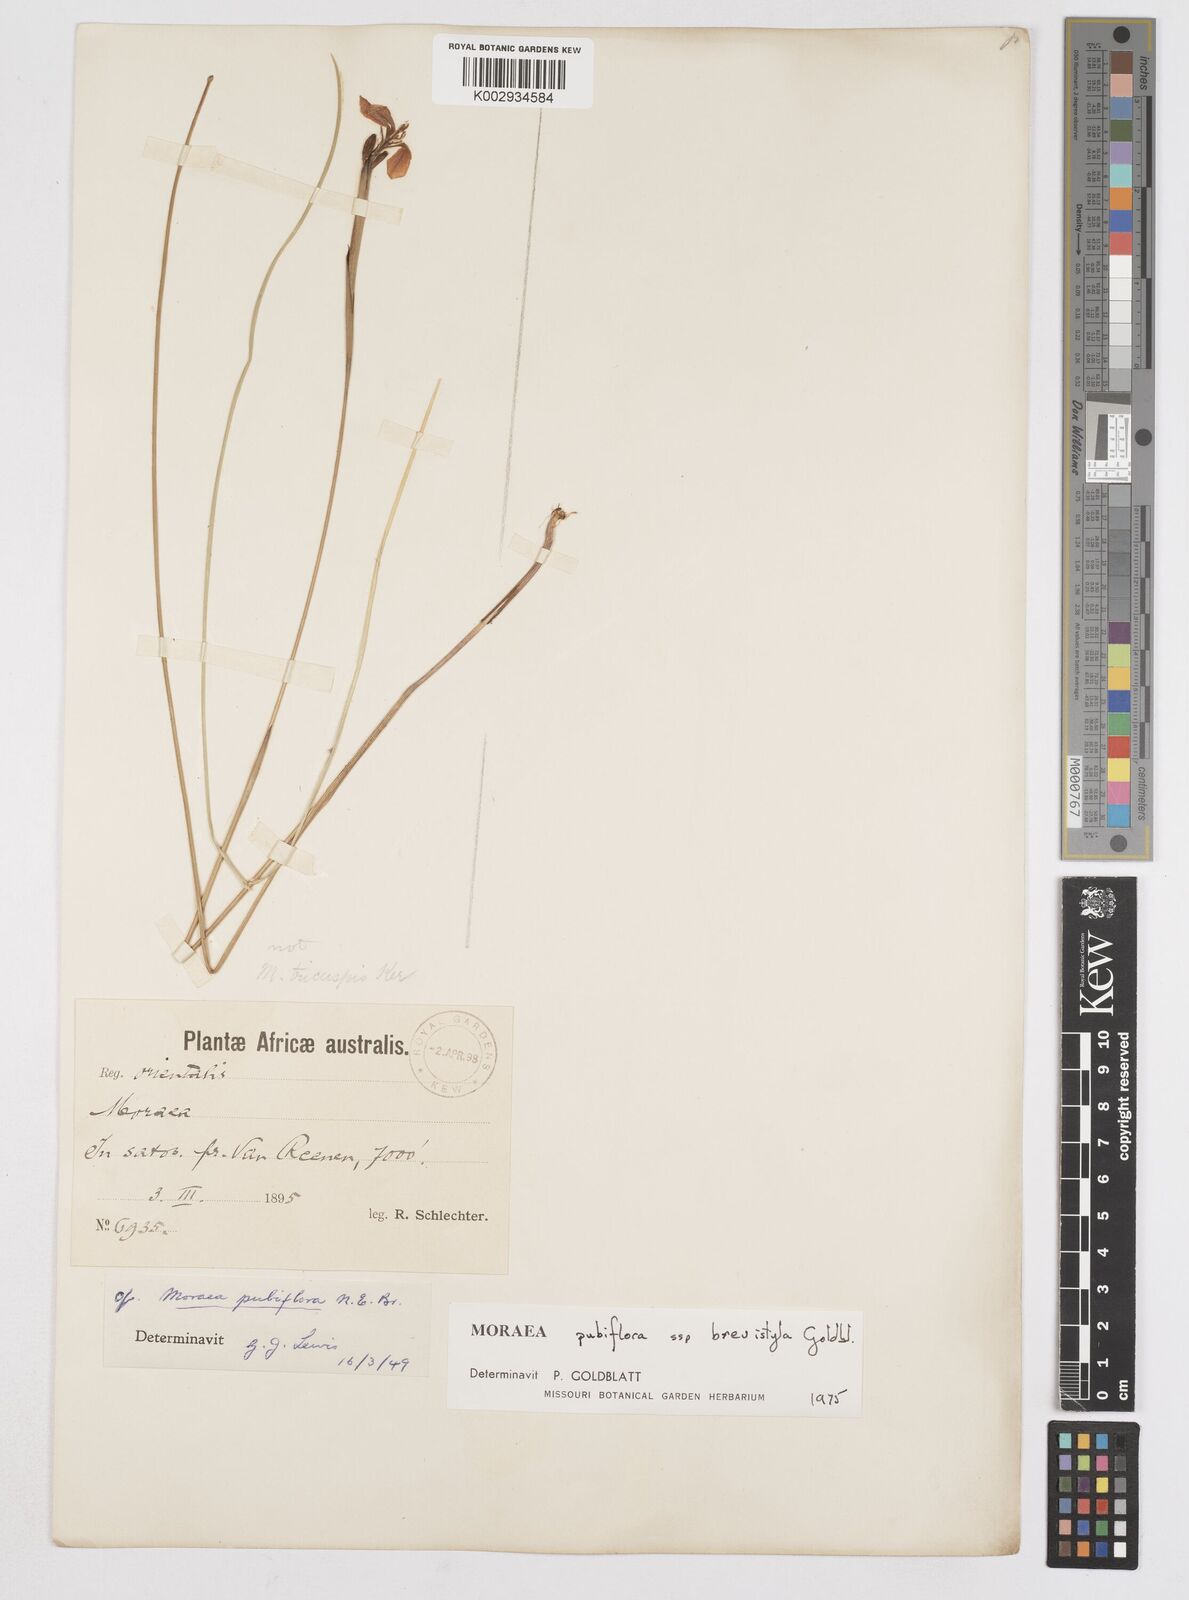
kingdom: Plantae
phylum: Tracheophyta
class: Liliopsida
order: Asparagales
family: Iridaceae
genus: Moraea
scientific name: Moraea brevistyla
